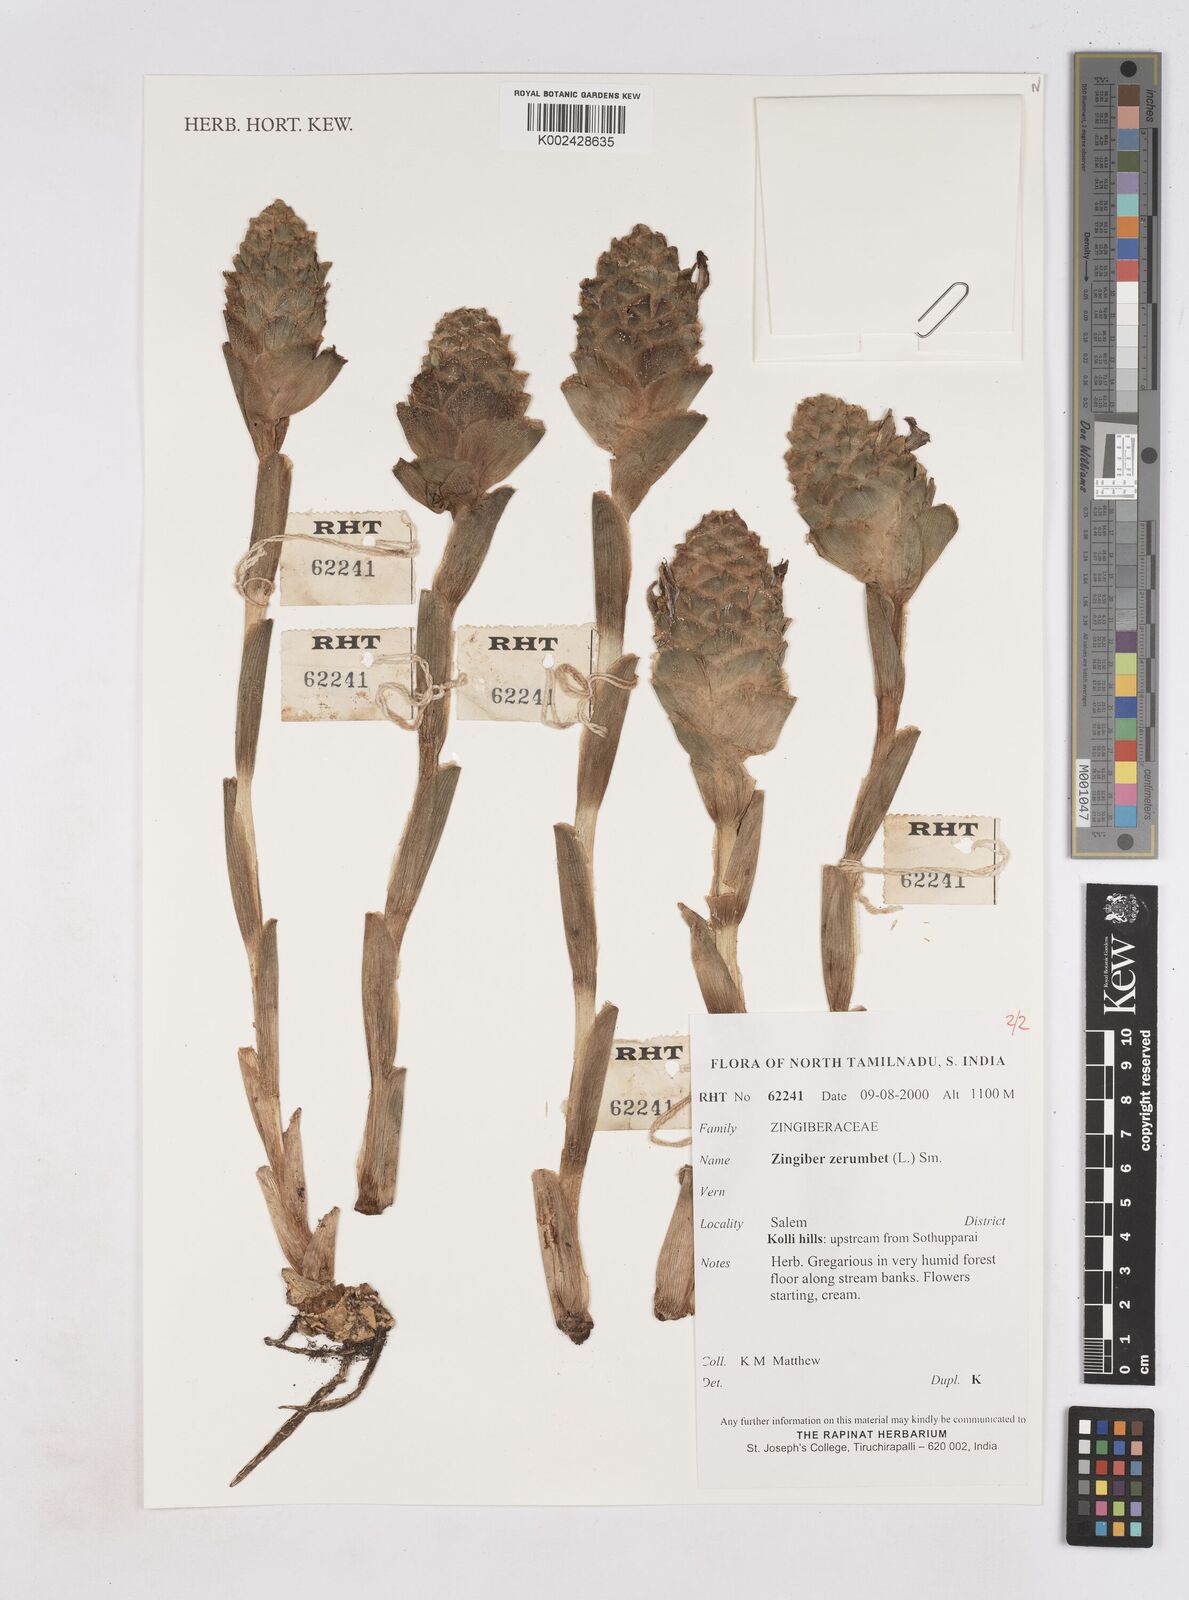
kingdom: Plantae
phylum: Tracheophyta
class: Liliopsida
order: Zingiberales
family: Zingiberaceae
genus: Zingiber
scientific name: Zingiber zerumbet
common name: Bitter ginger
